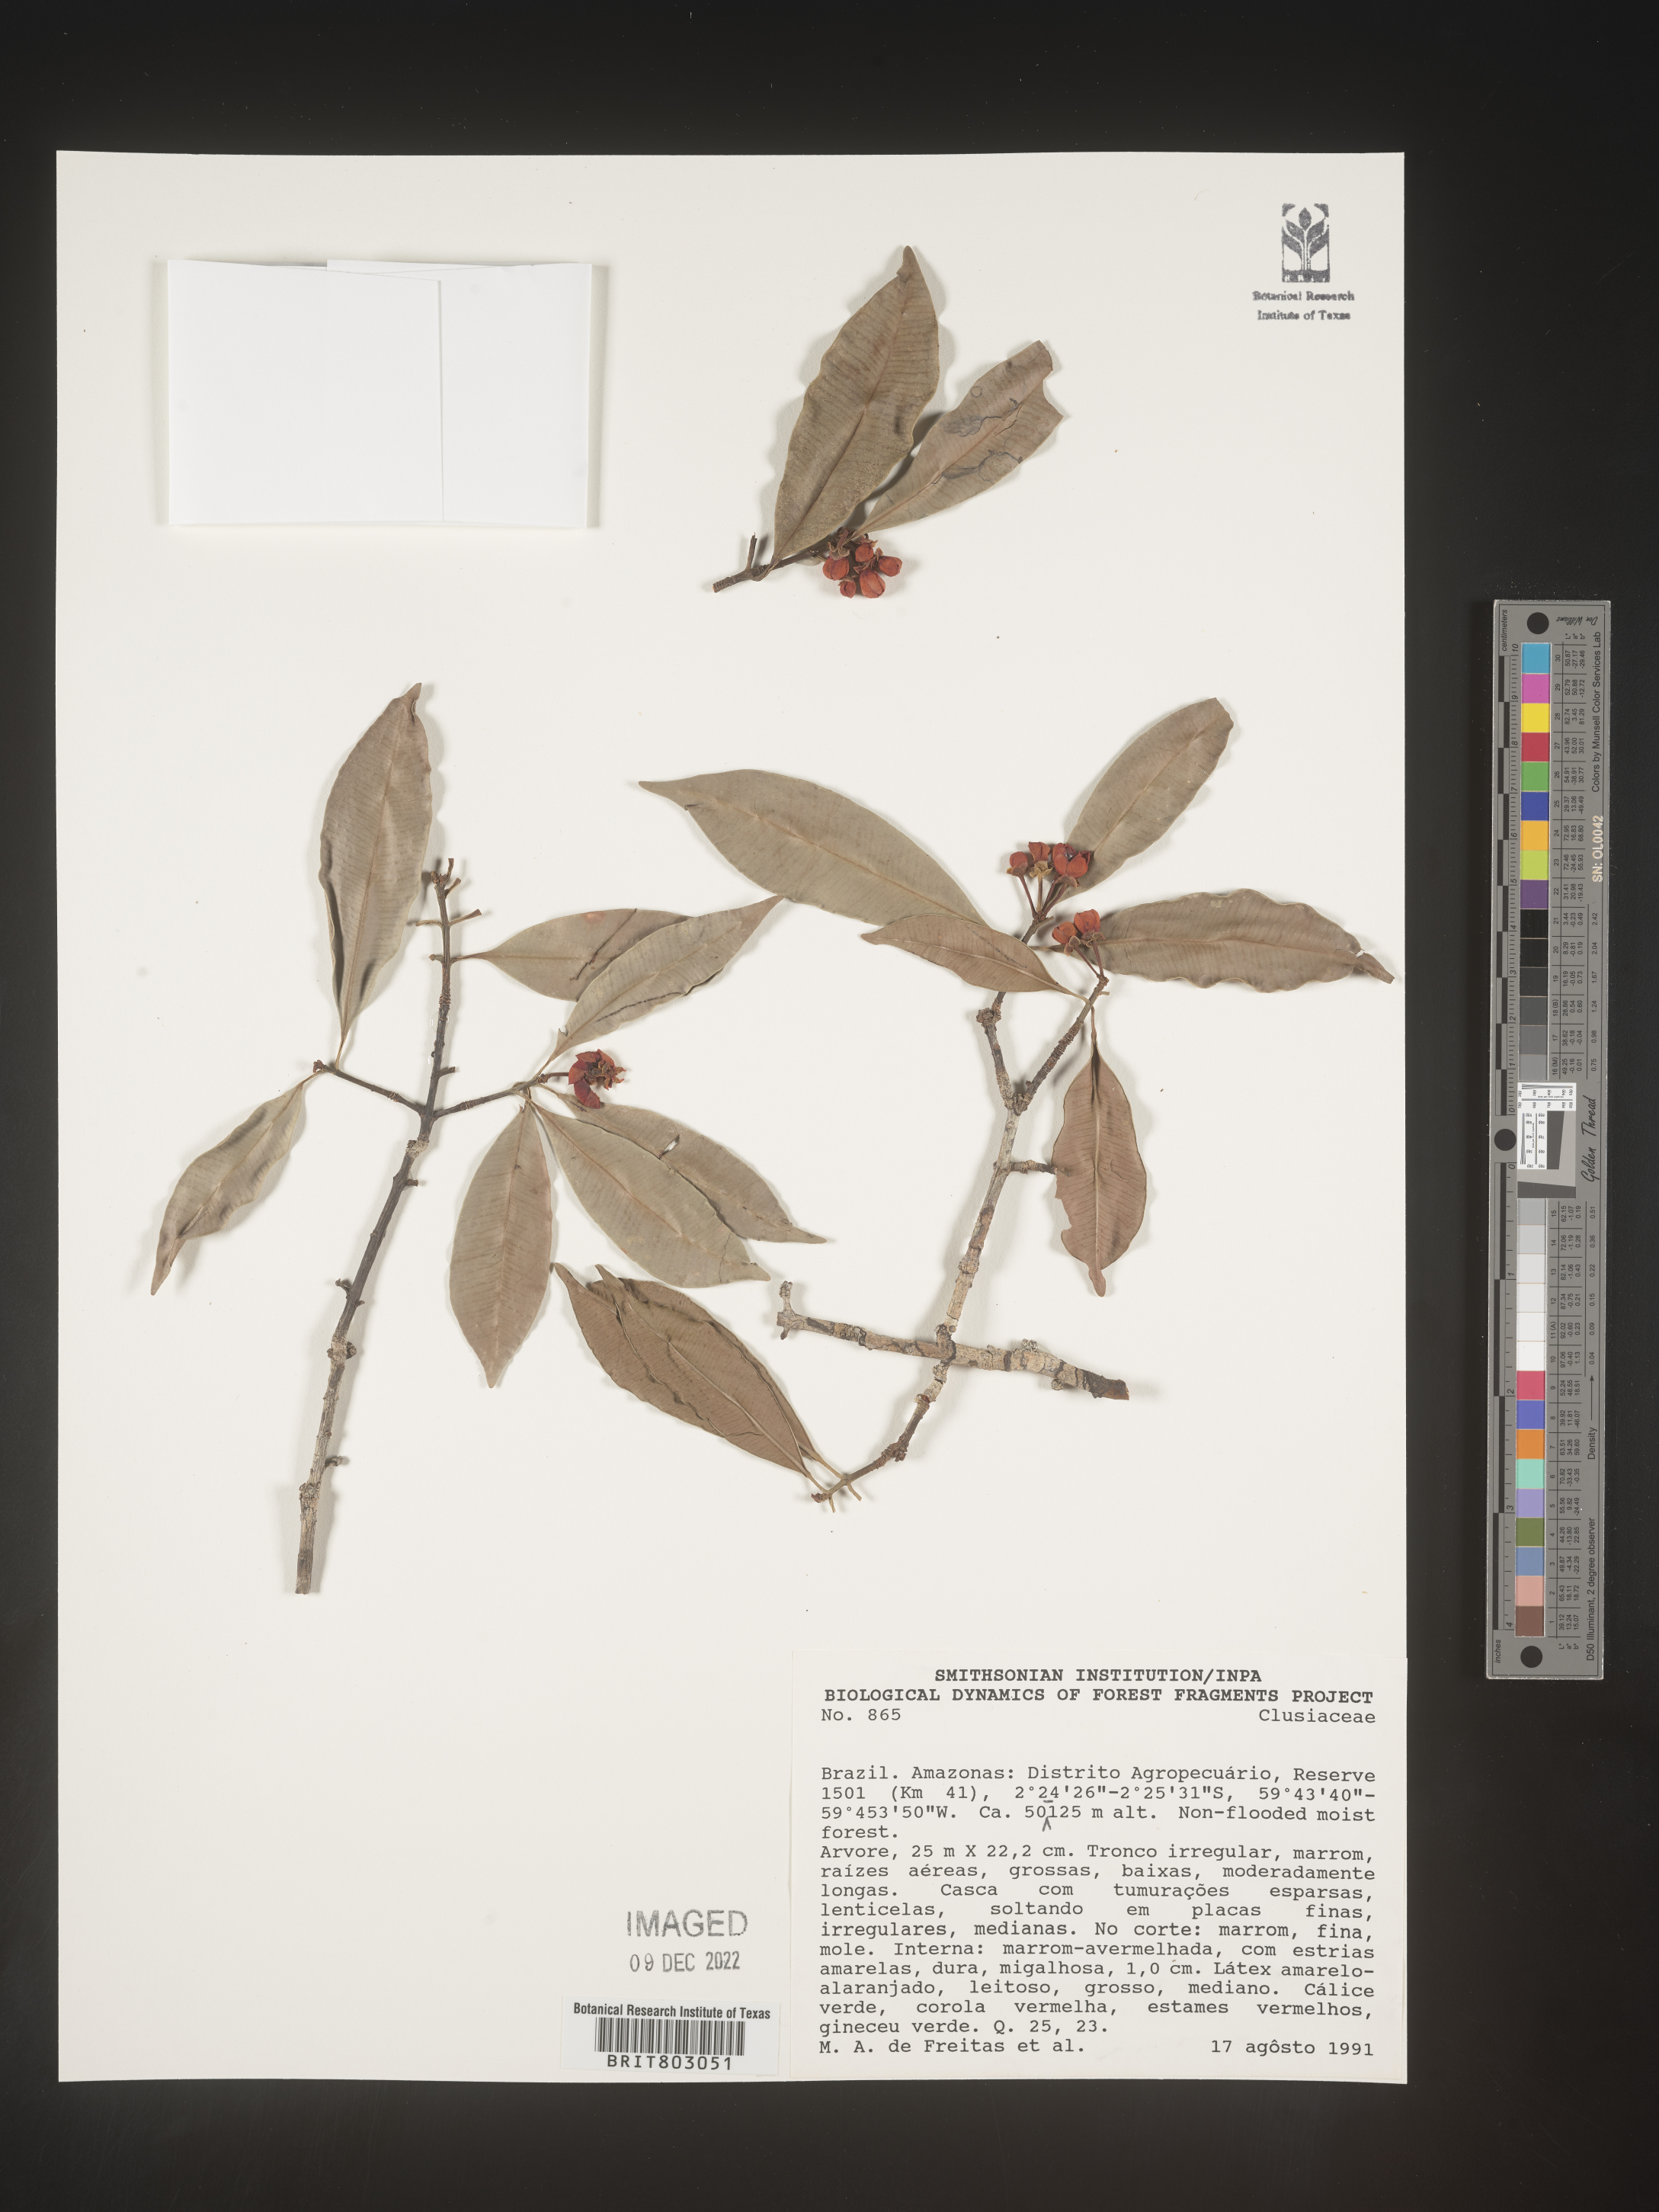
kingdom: Plantae
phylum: Tracheophyta
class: Magnoliopsida
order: Malpighiales
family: Clusiaceae
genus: Symphonia
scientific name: Symphonia
